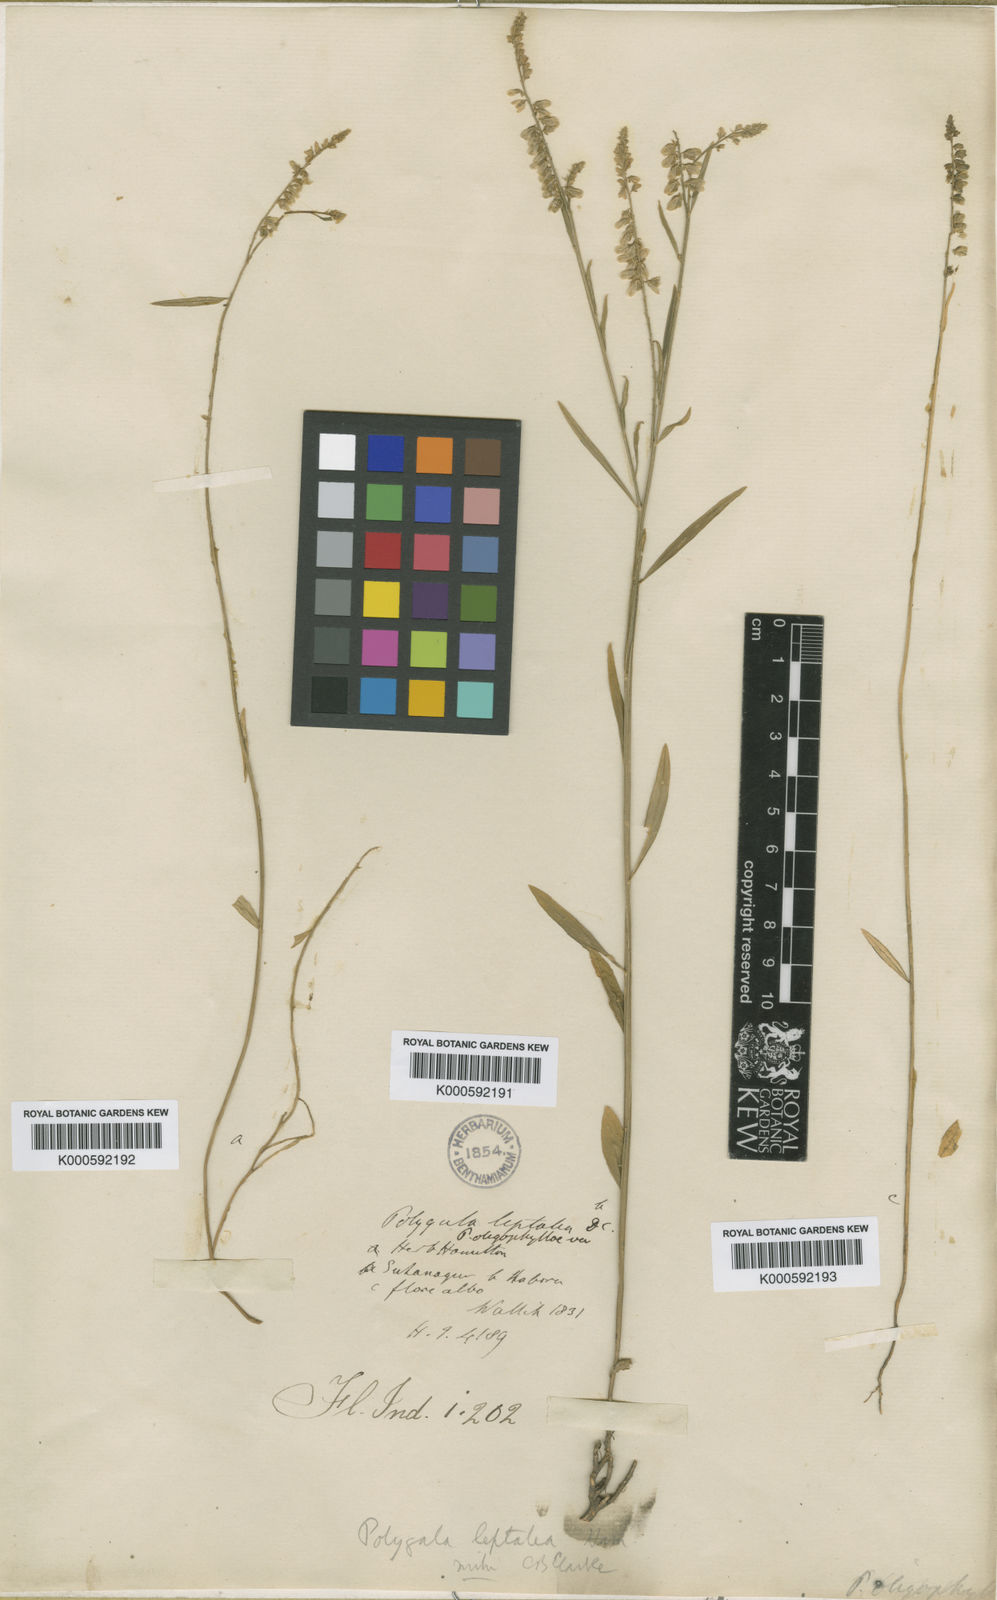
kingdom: Plantae
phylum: Tracheophyta
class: Magnoliopsida
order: Fabales
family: Polygalaceae
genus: Polygala
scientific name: Polygala longifolia
